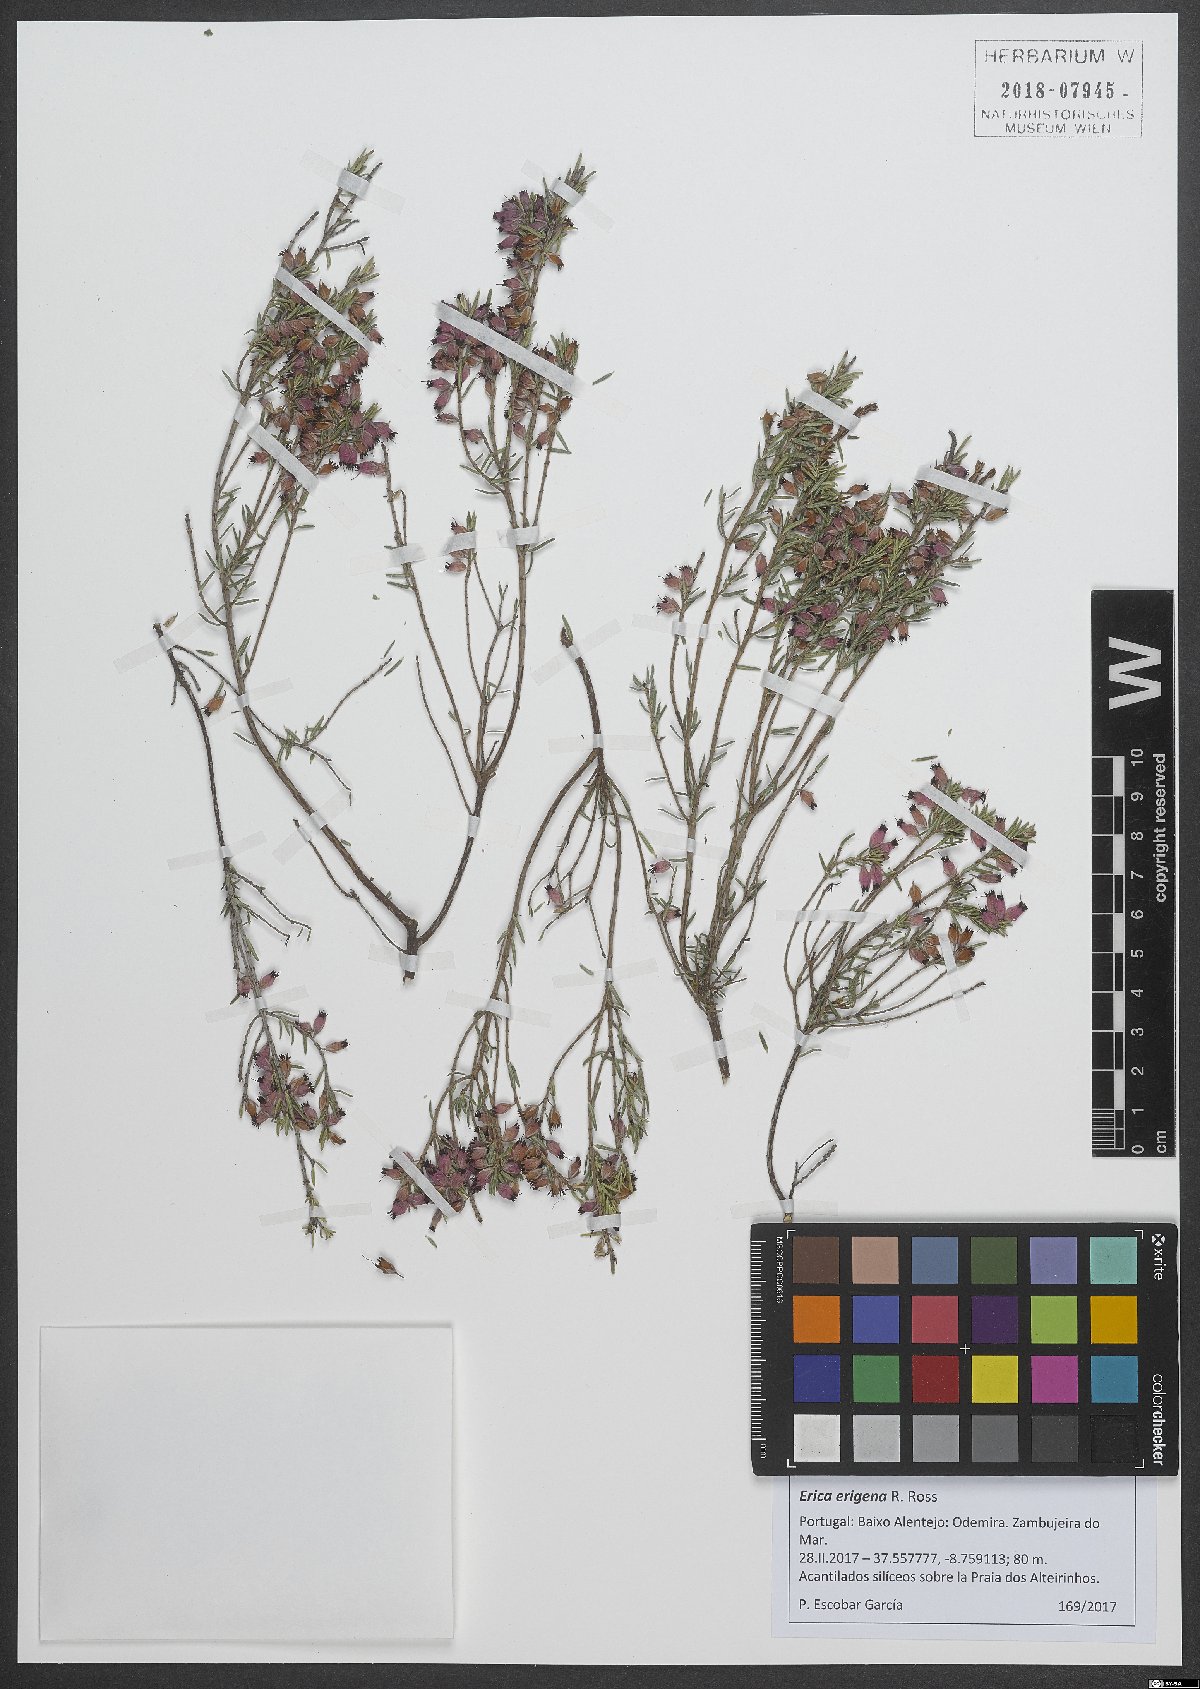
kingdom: Plantae
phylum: Tracheophyta
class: Magnoliopsida
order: Ericales
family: Ericaceae
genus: Erica
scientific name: Erica erigena
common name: Irish heath
